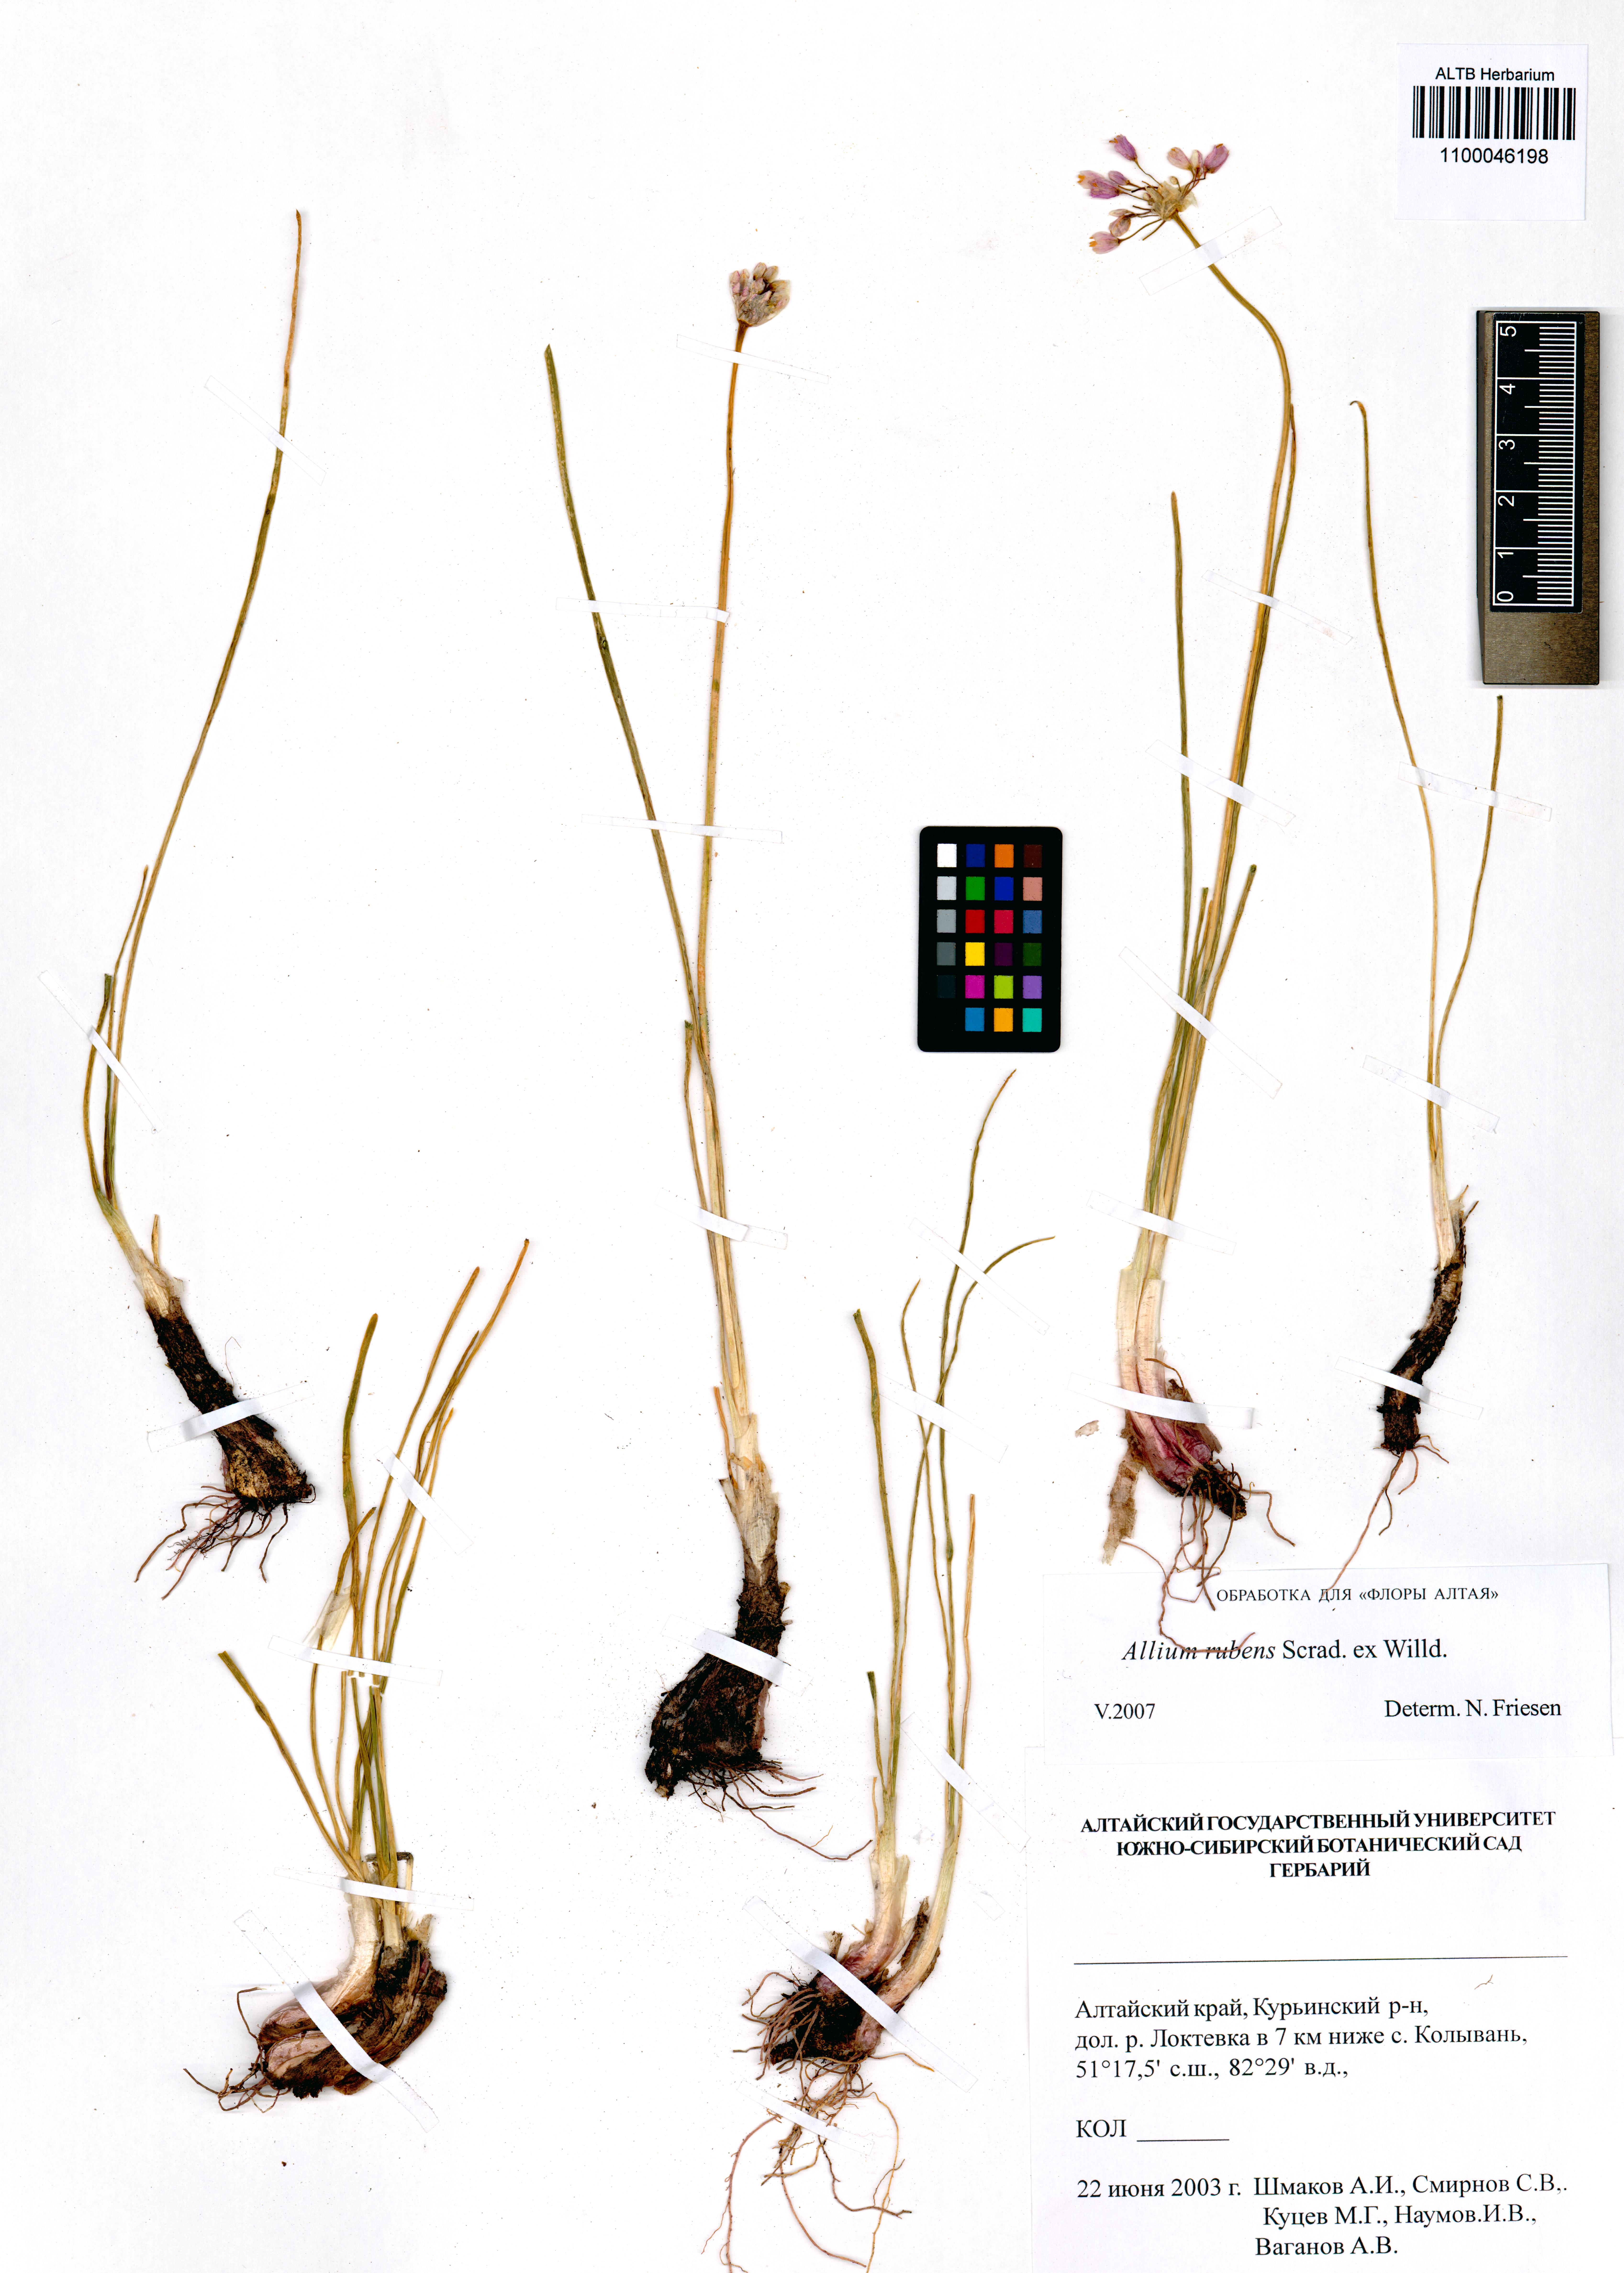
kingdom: Plantae
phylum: Tracheophyta
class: Liliopsida
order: Asparagales
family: Amaryllidaceae
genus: Allium
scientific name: Allium rubens
